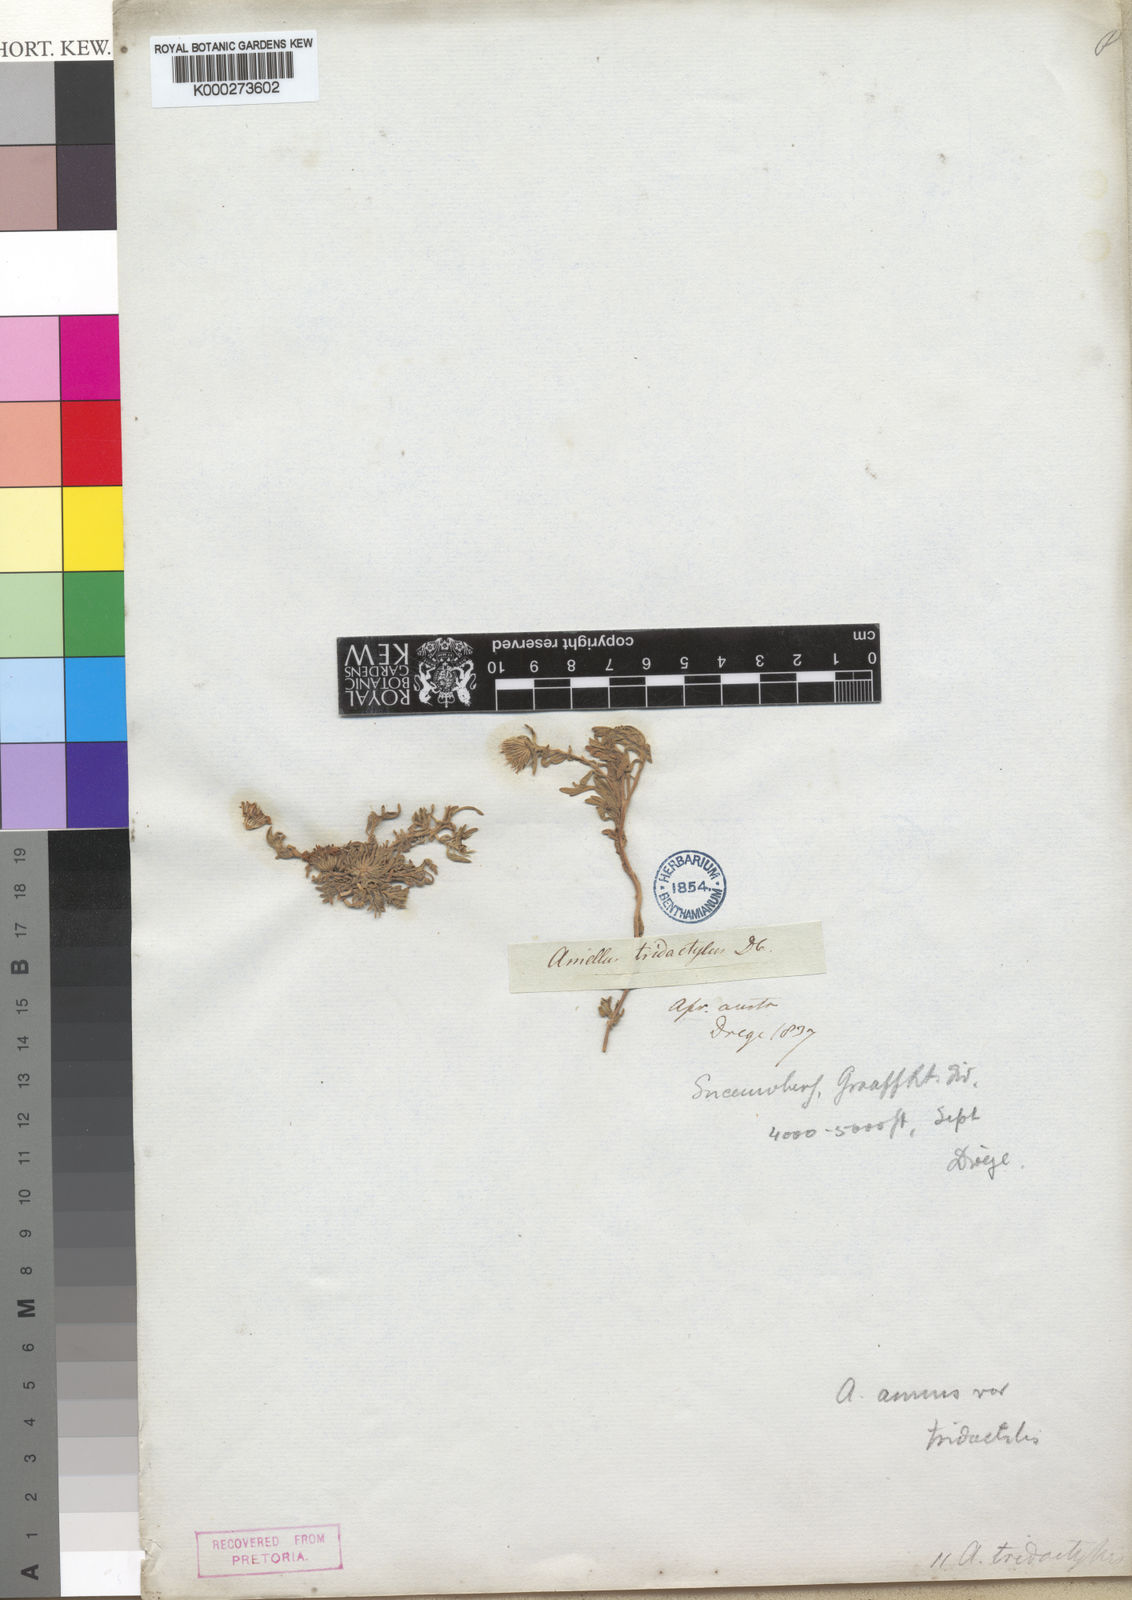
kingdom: Plantae
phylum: Tracheophyta
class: Magnoliopsida
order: Asterales
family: Asteraceae
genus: Amellus
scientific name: Amellus strigosus
